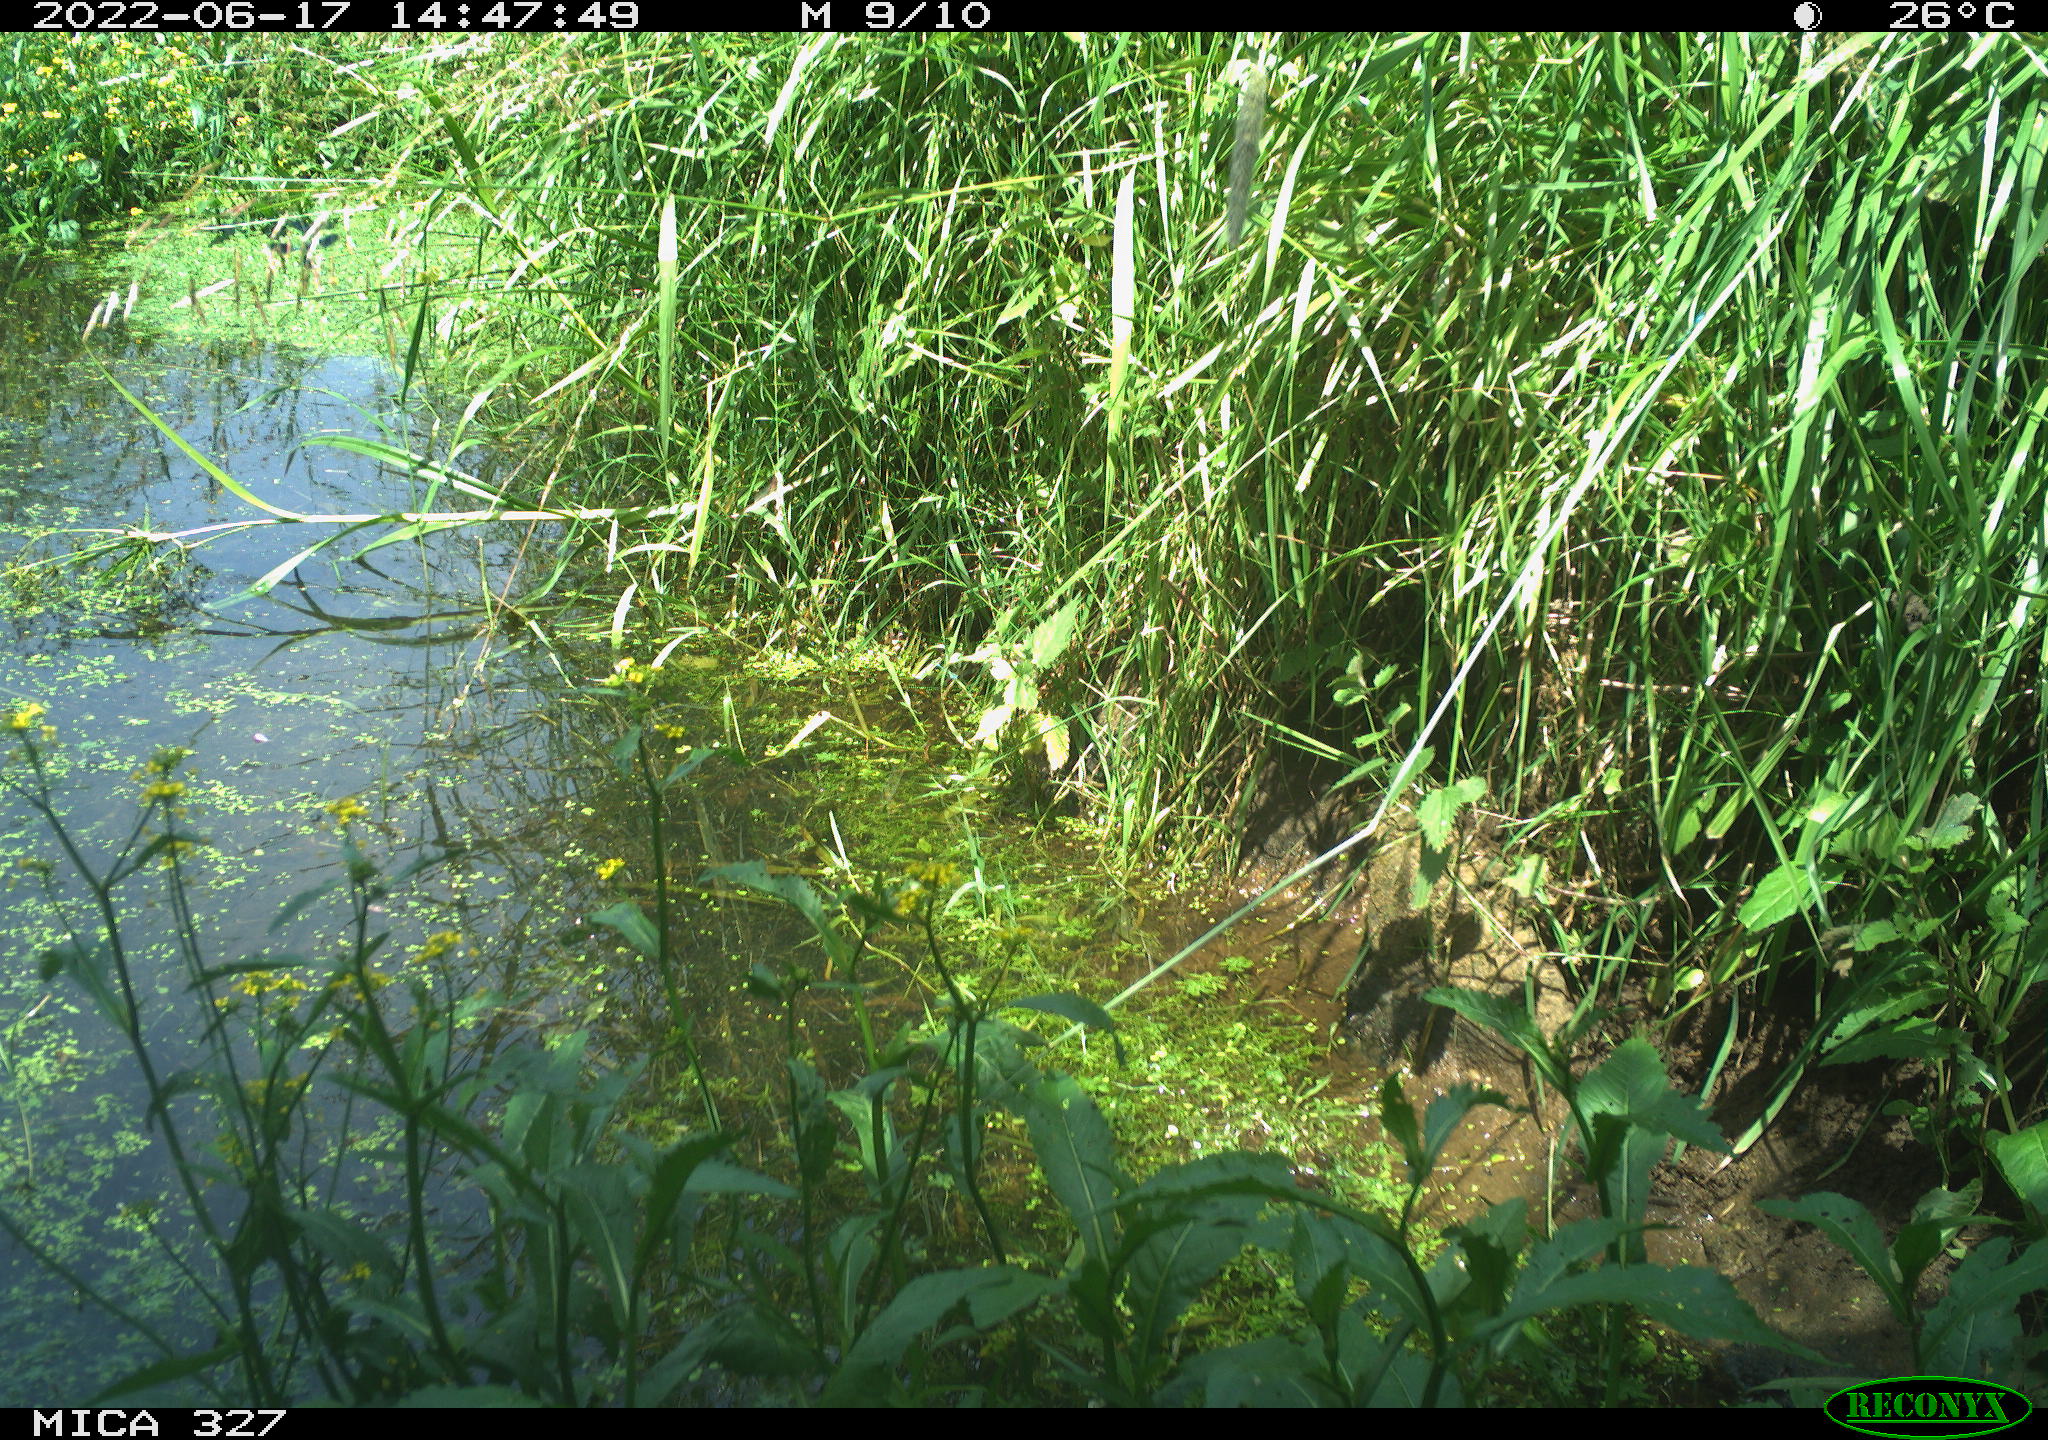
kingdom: Animalia
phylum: Chordata
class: Aves
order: Gruiformes
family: Rallidae
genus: Gallinula
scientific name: Gallinula chloropus
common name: Common moorhen
